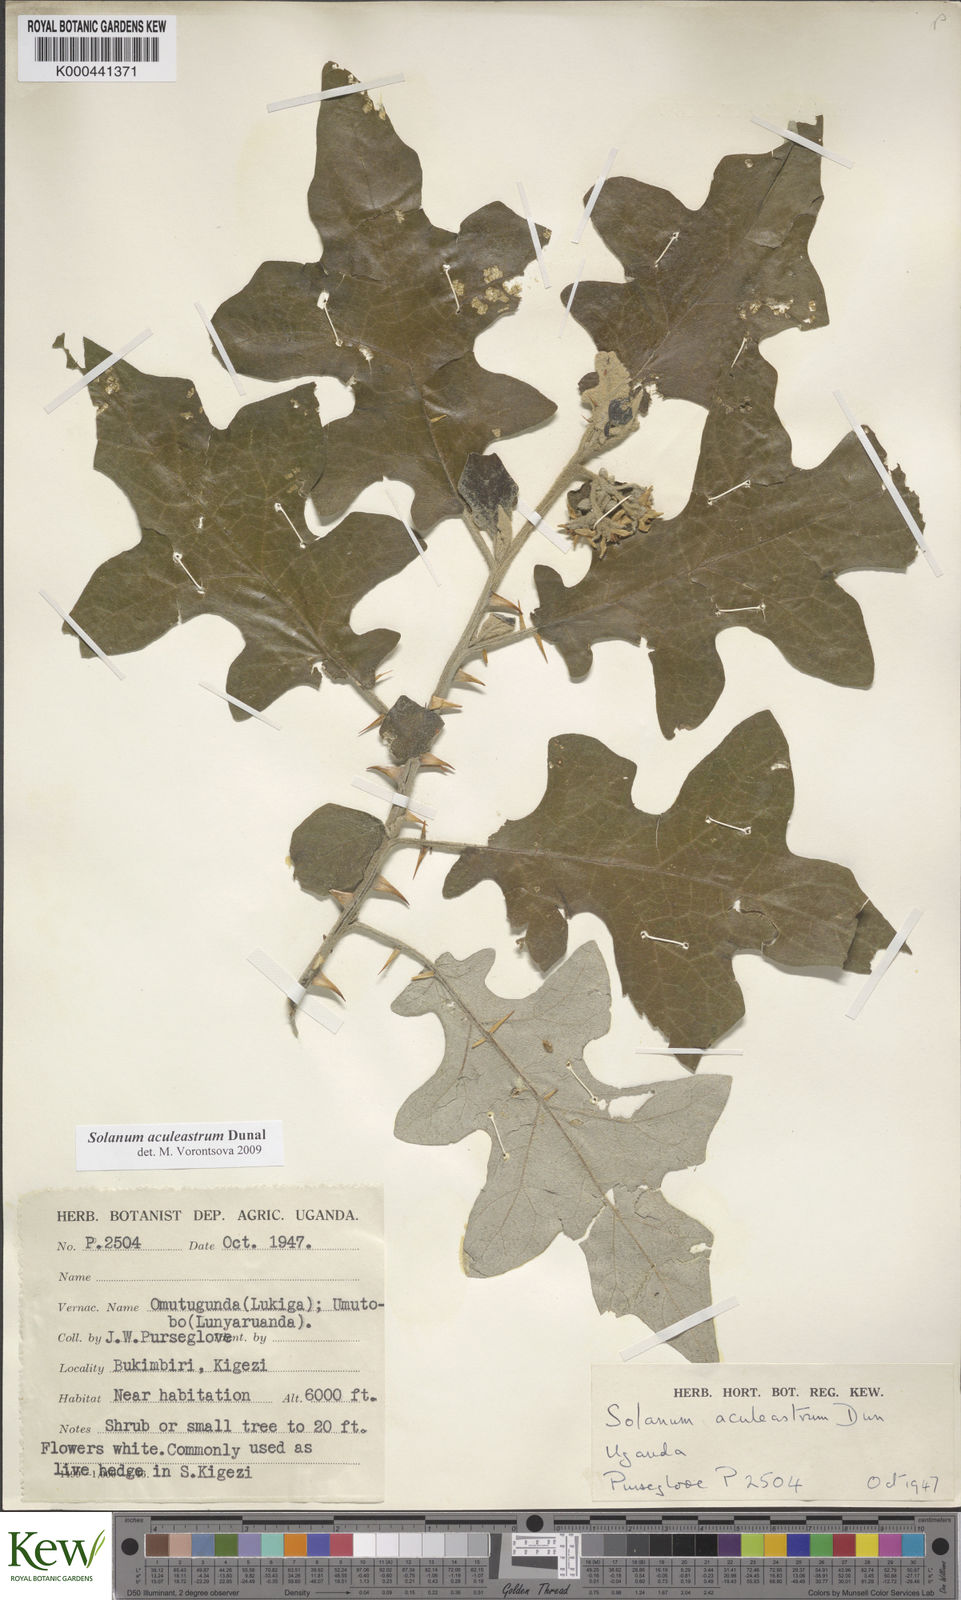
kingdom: Plantae
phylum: Tracheophyta
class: Magnoliopsida
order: Solanales
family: Solanaceae
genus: Solanum
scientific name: Solanum aculeastrum
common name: Goat bitter-apple
